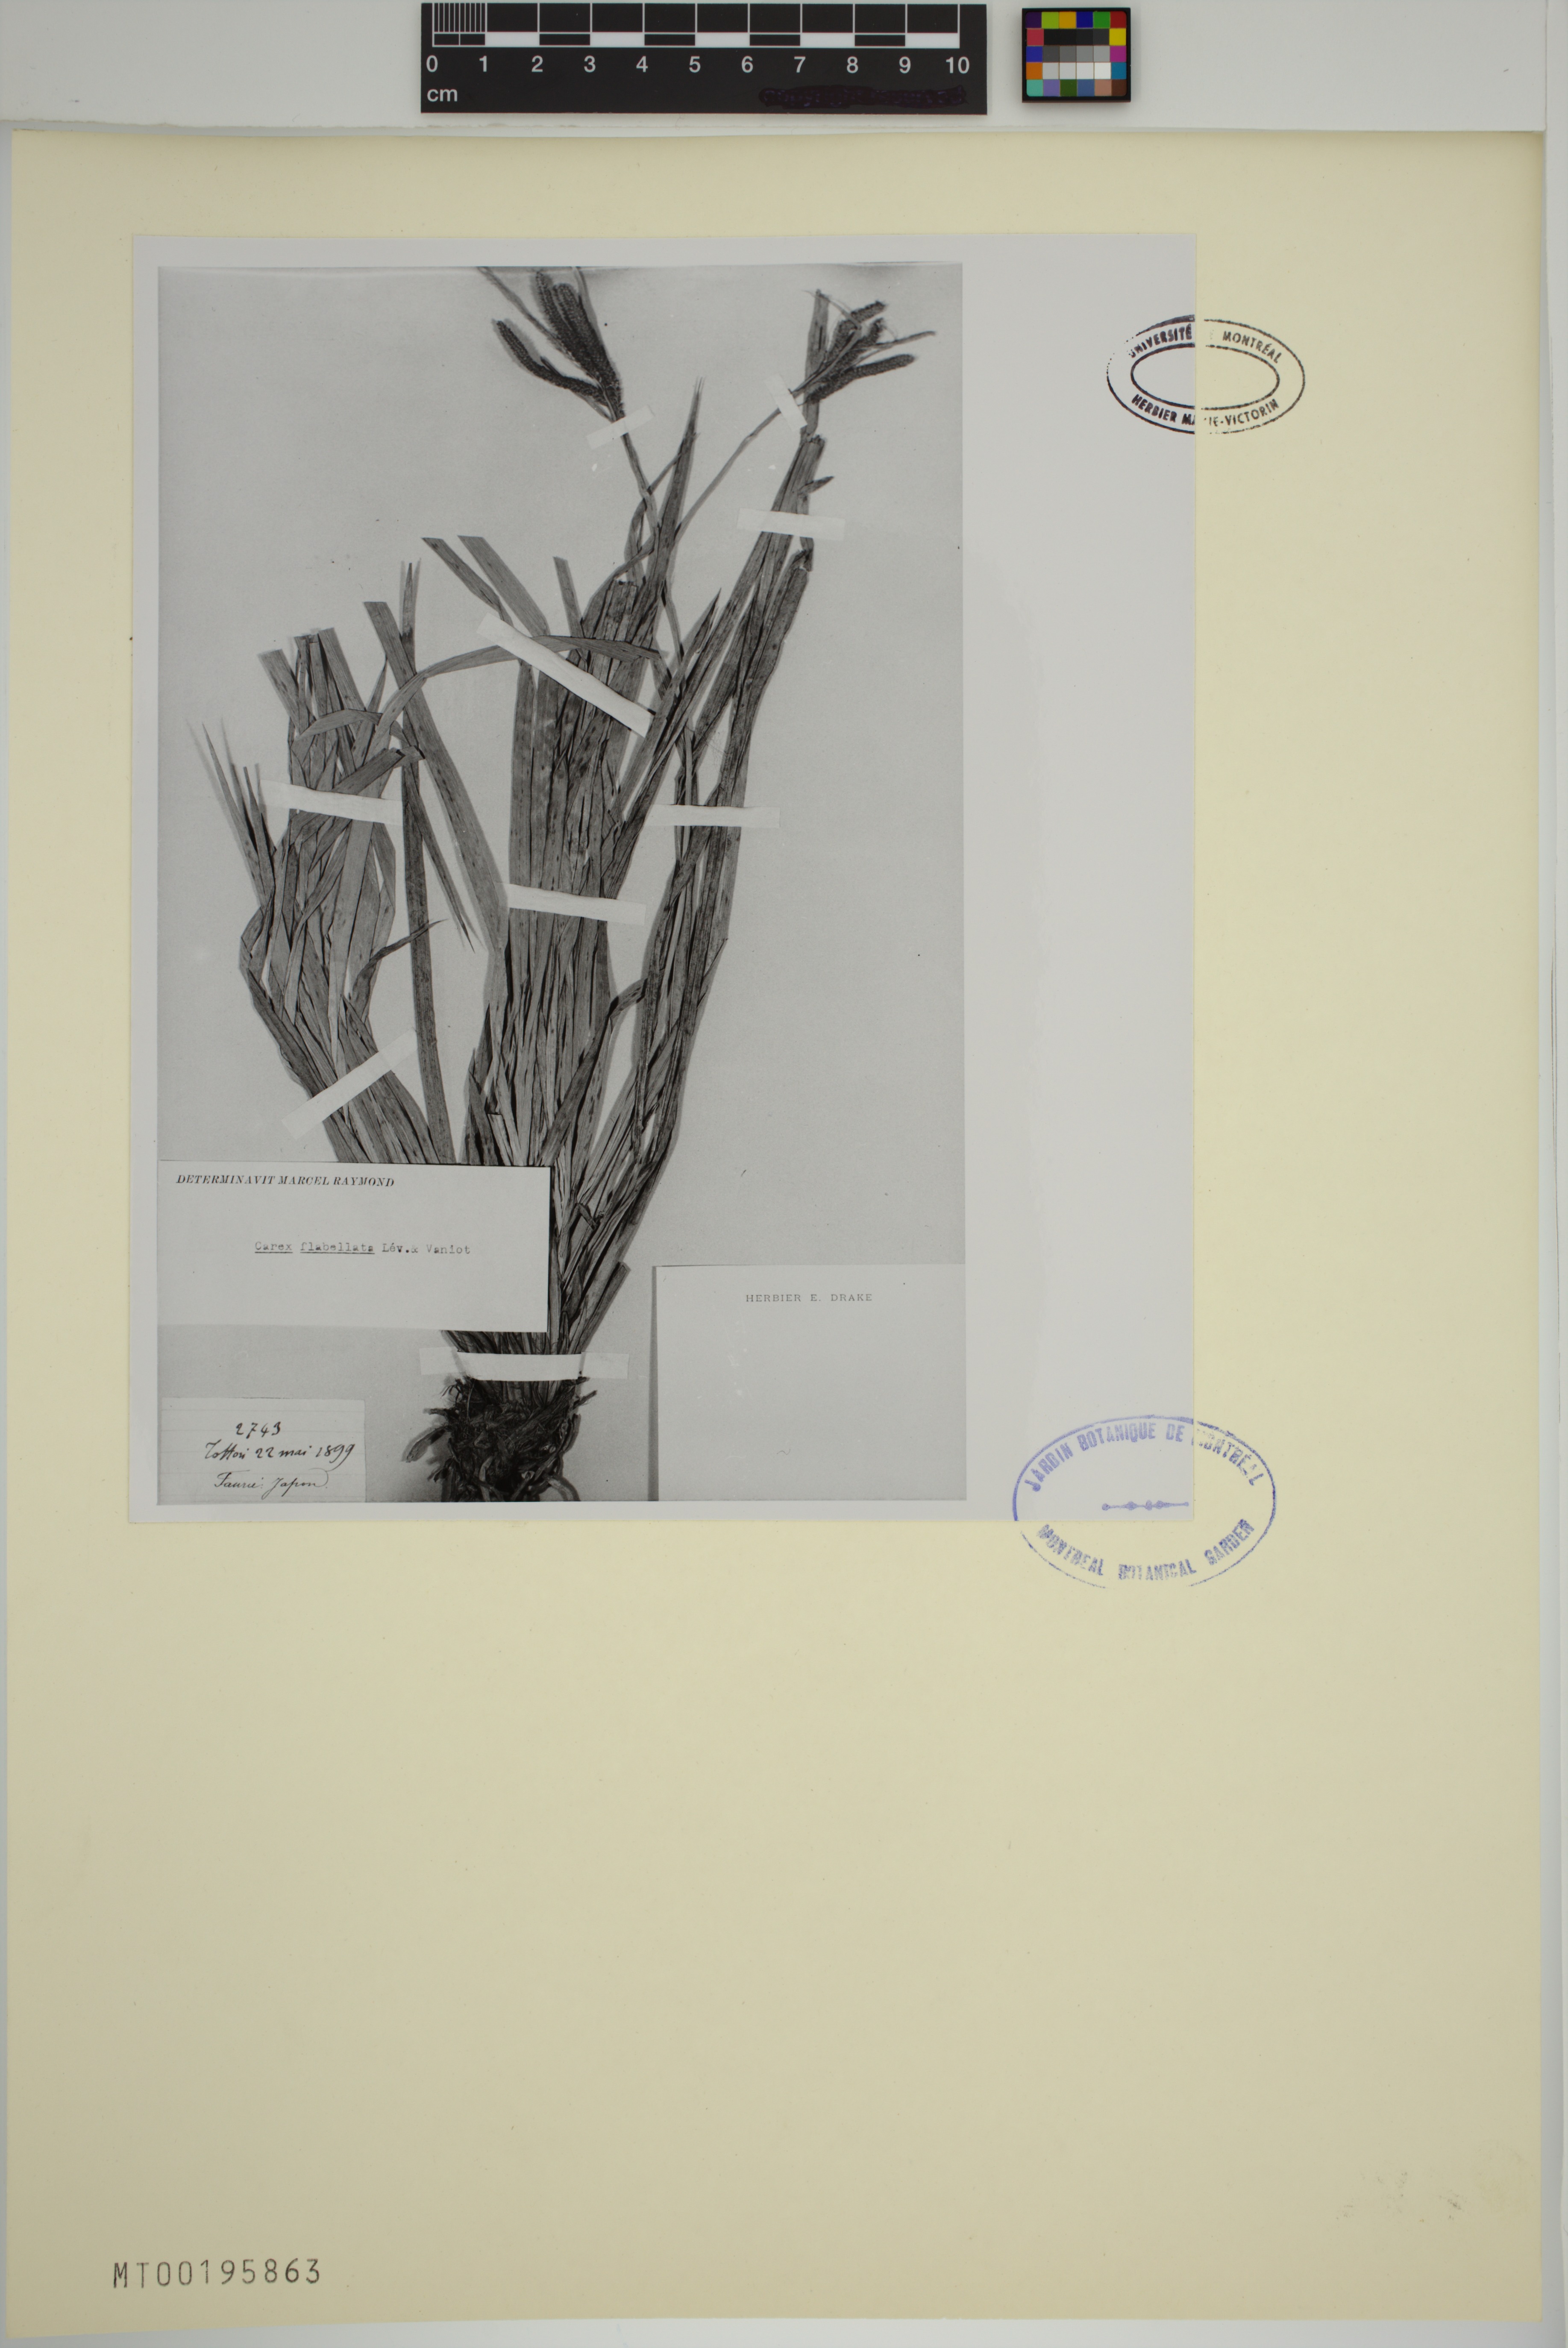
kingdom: Plantae
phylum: Tracheophyta
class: Liliopsida
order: Poales
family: Cyperaceae
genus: Carex
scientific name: Carex flabellata
